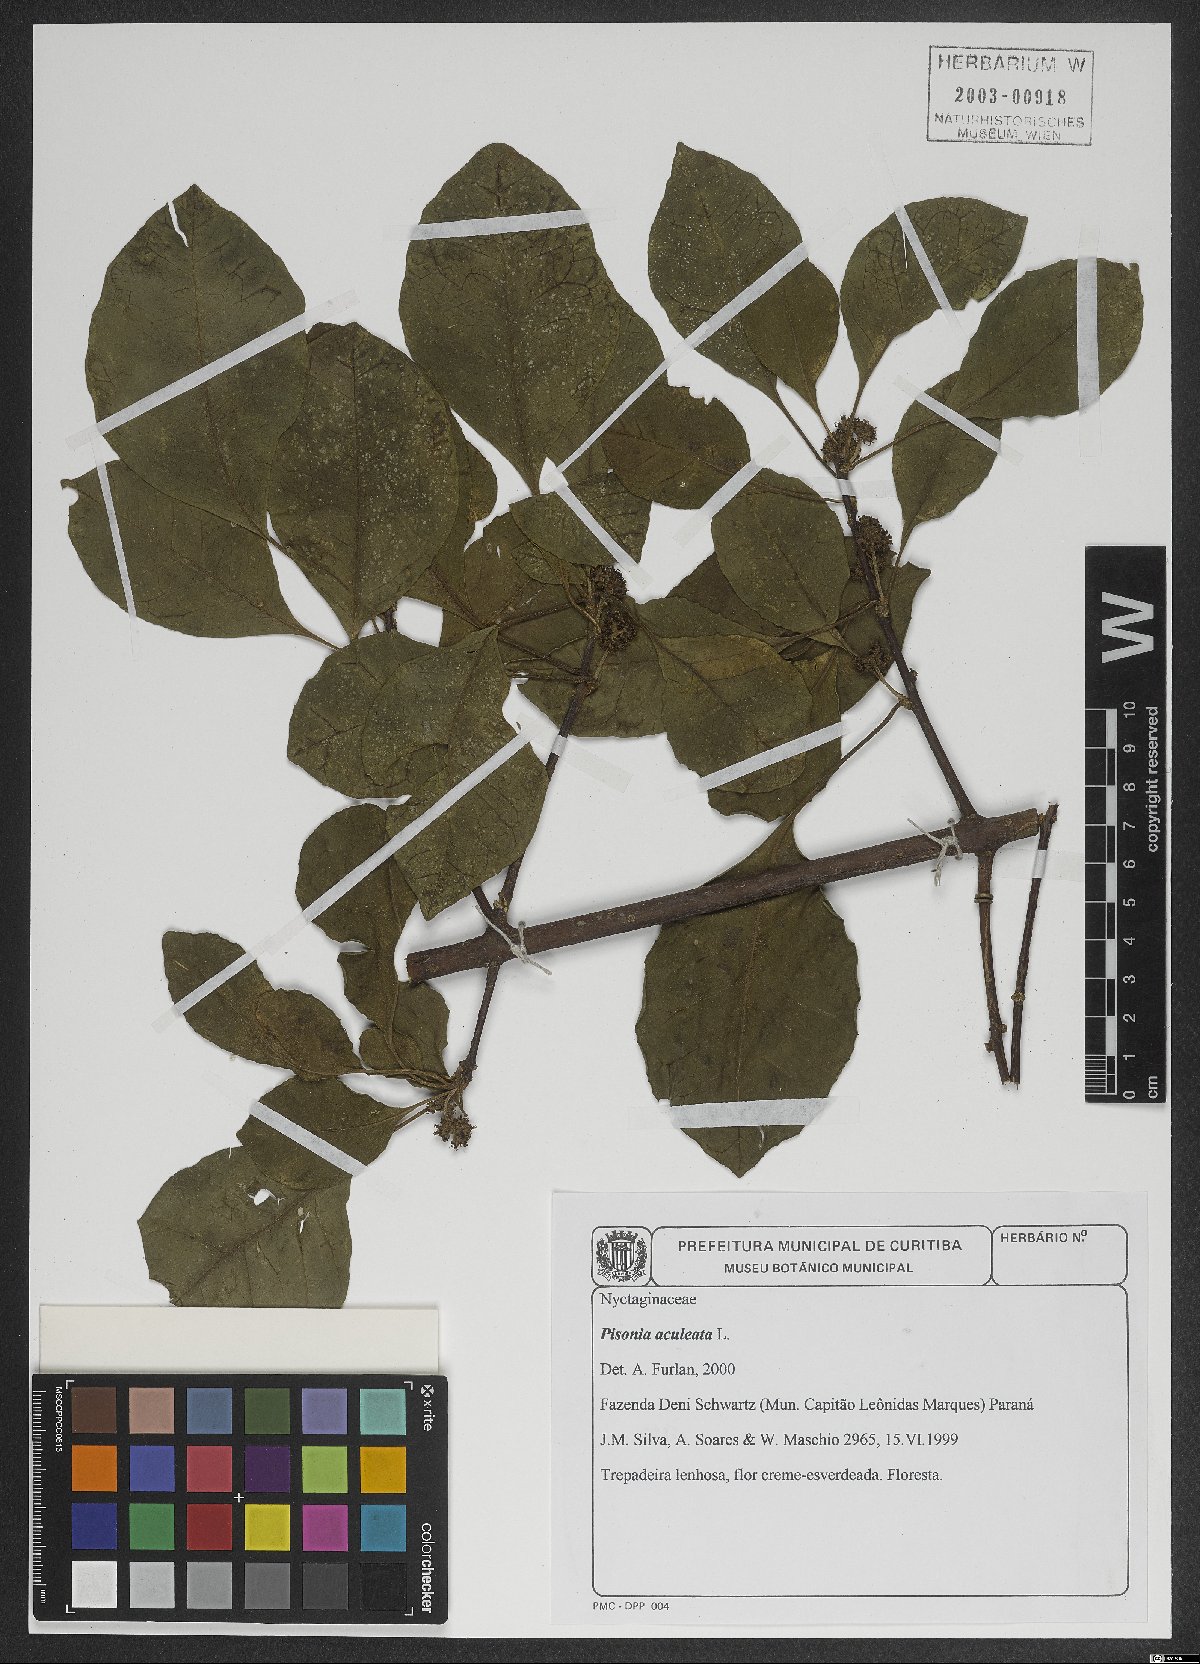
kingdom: Plantae
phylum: Tracheophyta
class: Magnoliopsida
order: Caryophyllales
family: Nyctaginaceae
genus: Pisonia
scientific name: Pisonia aculeata
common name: Cockspur vine
